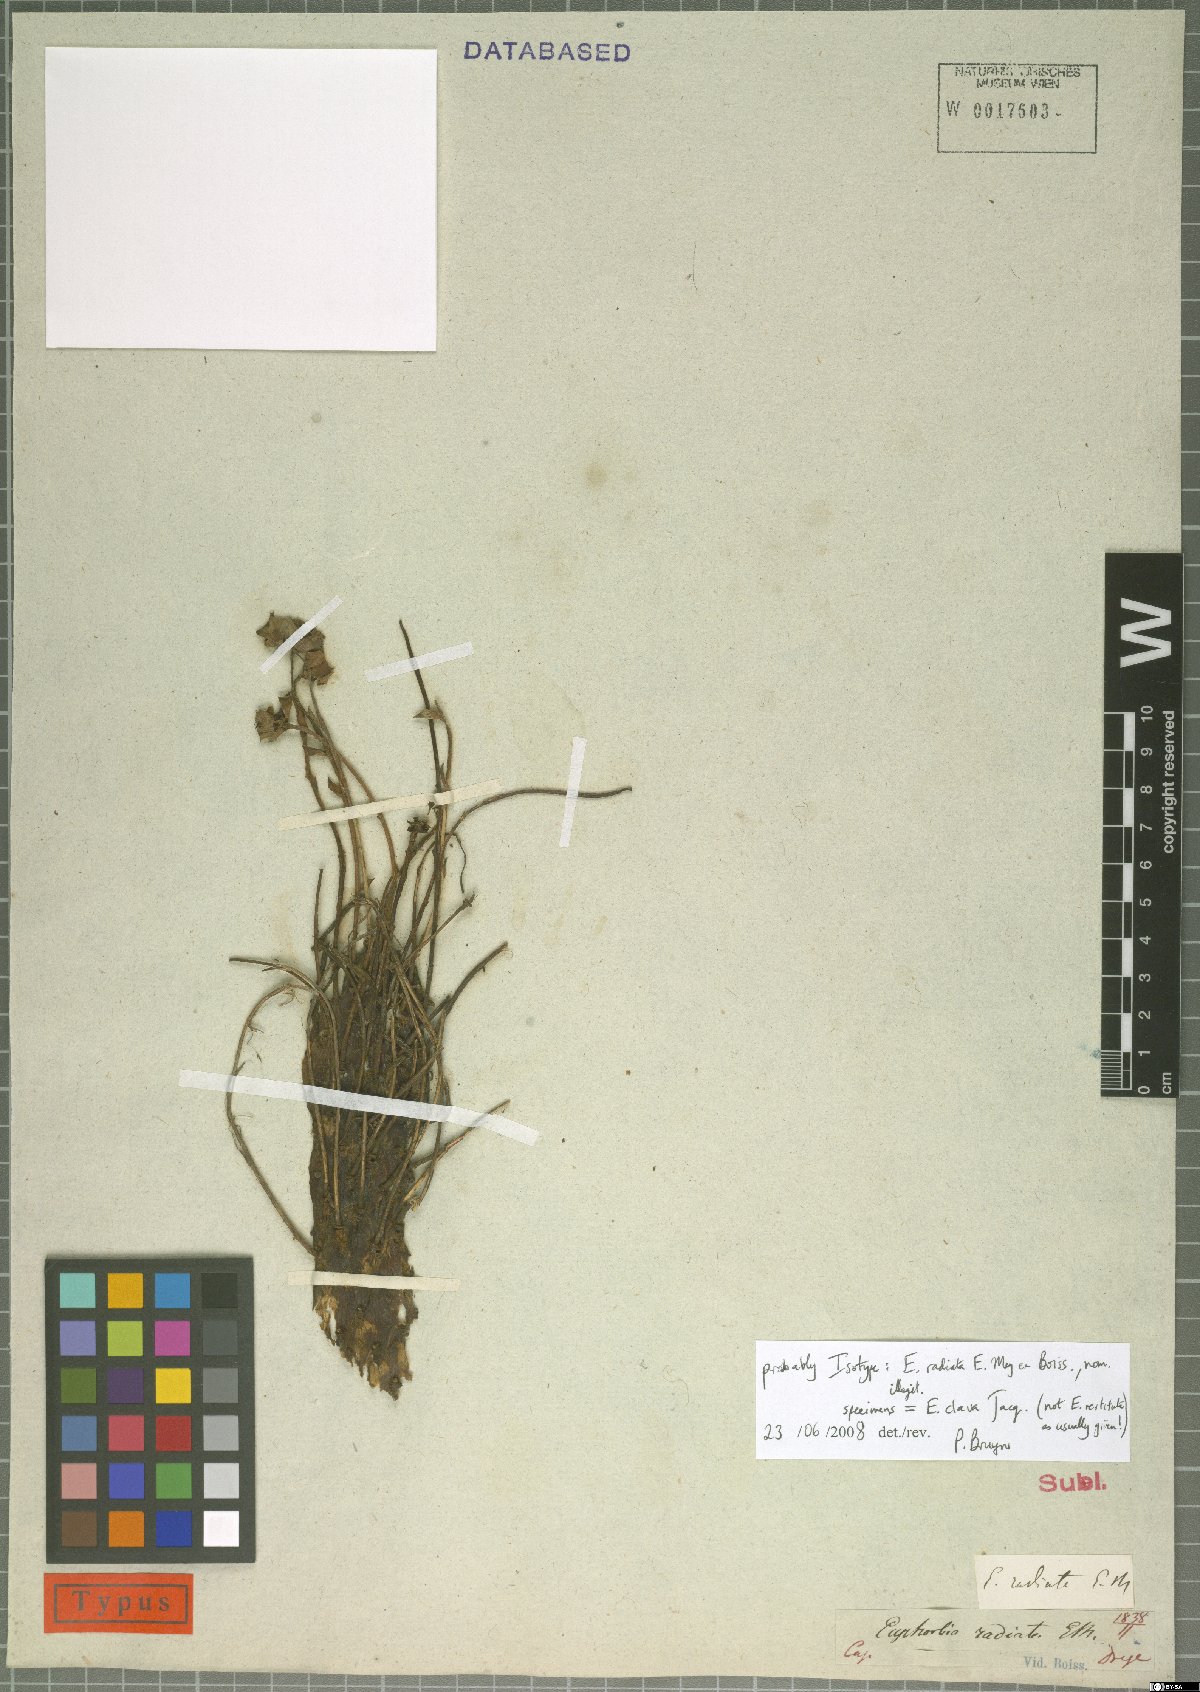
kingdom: Plantae
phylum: Tracheophyta
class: Magnoliopsida
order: Malpighiales
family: Euphorbiaceae
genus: Euphorbia
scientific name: Euphorbia clava
